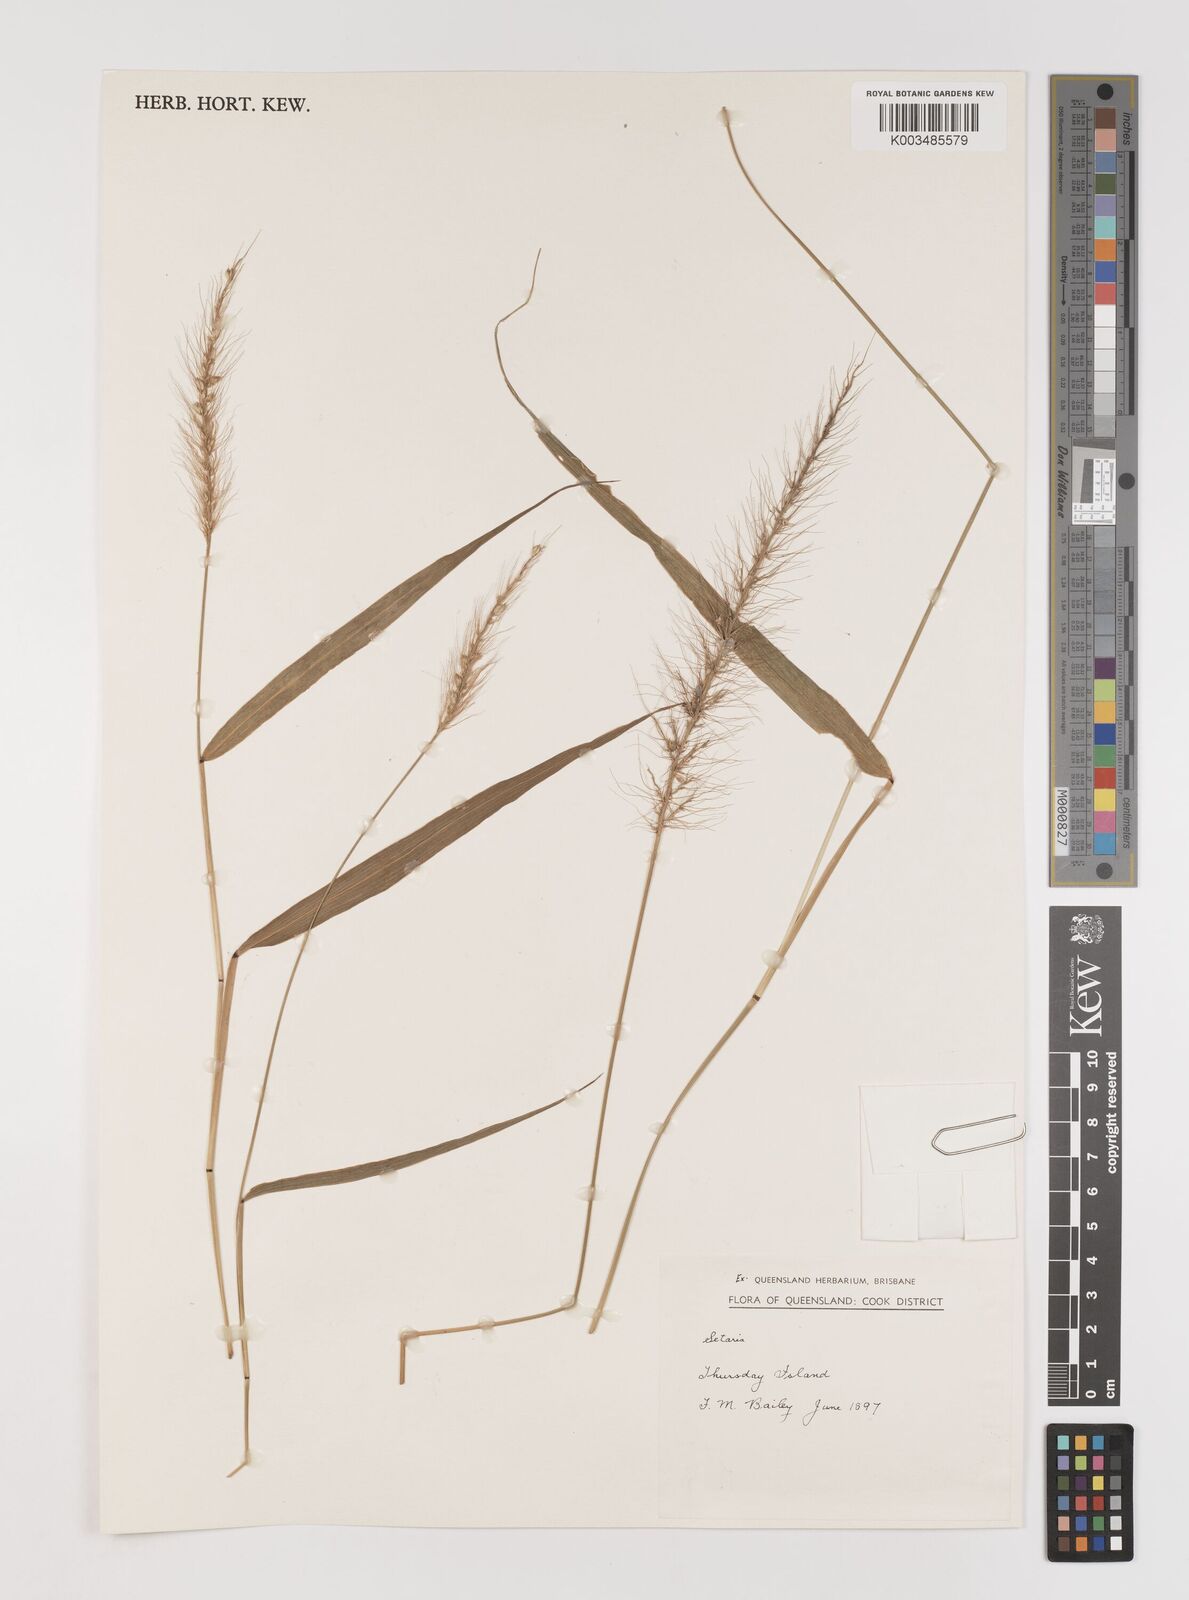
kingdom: Plantae
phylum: Tracheophyta
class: Liliopsida
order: Poales
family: Poaceae
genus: Setaria
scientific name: Setaria
